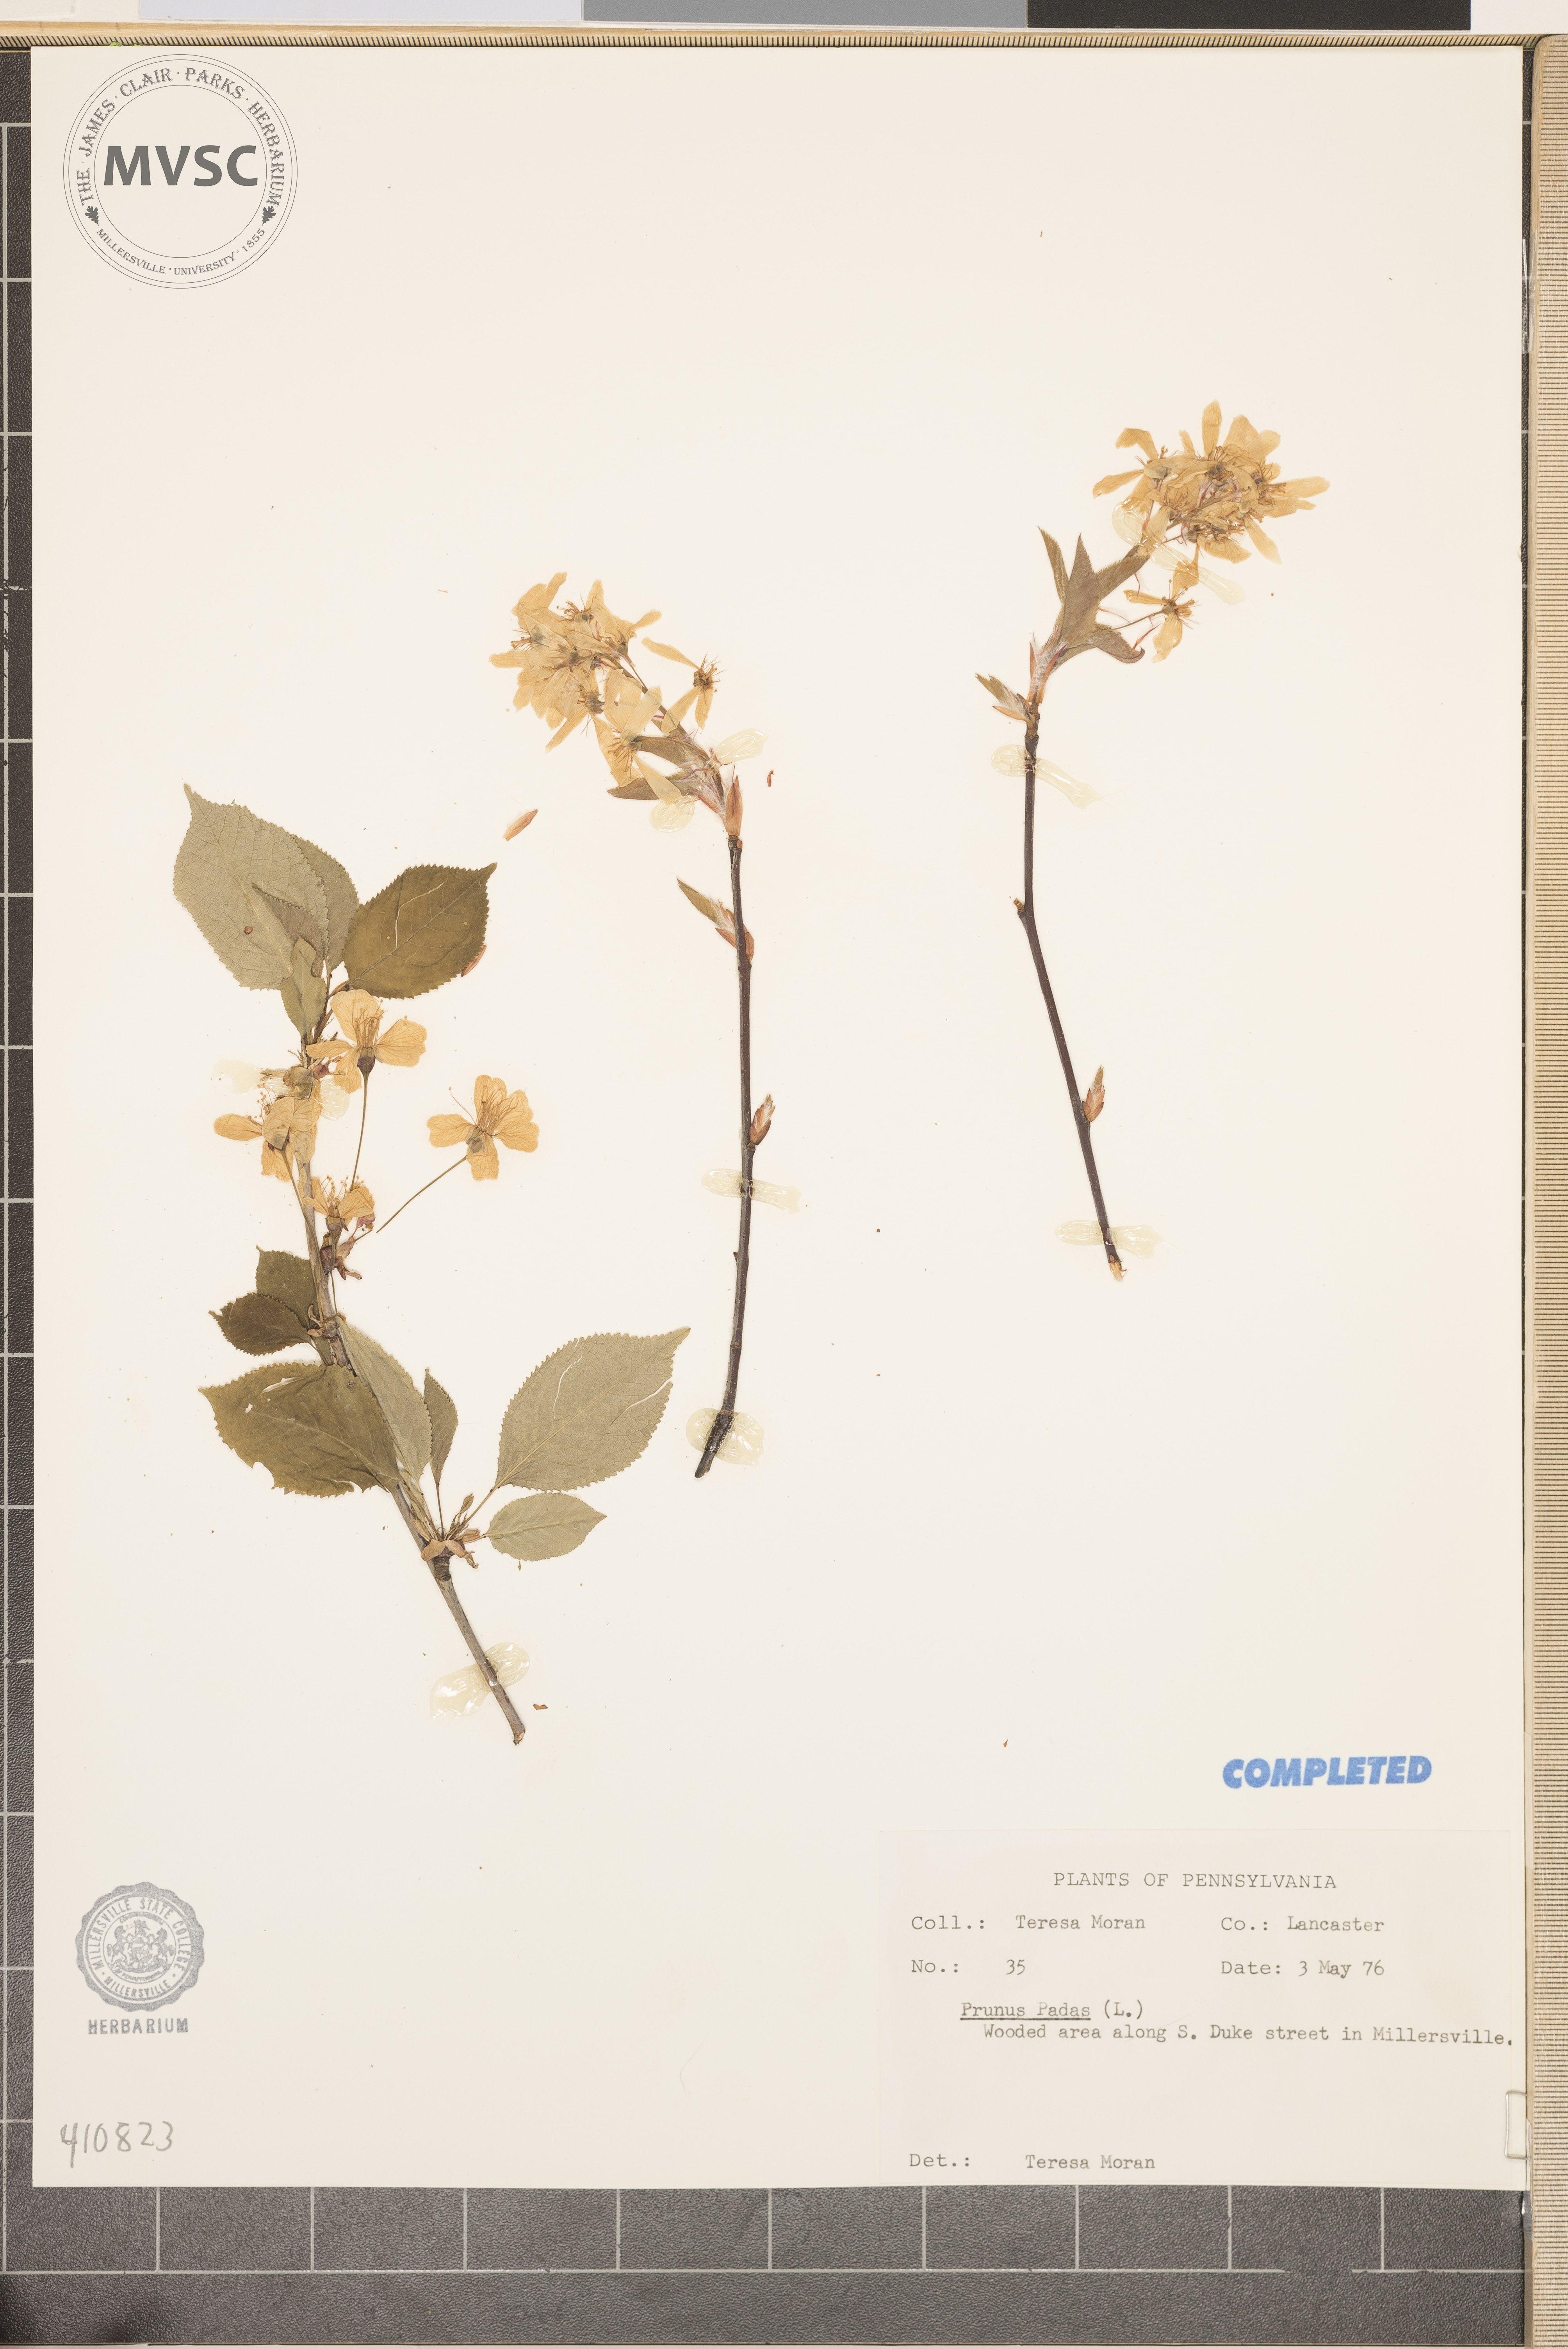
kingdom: Plantae
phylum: Tracheophyta
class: Magnoliopsida
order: Rosales
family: Rosaceae
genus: Prunus
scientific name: Prunus padus
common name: Bird cherry
